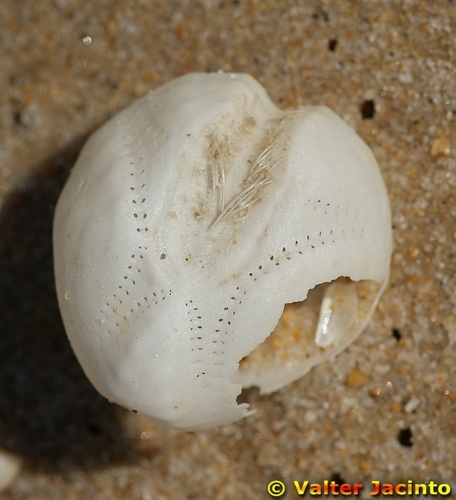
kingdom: Animalia
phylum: Echinodermata
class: Echinoidea
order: Spatangoida
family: Loveniidae
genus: Echinocardium
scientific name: Echinocardium cordatum
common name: Heart-urchin
